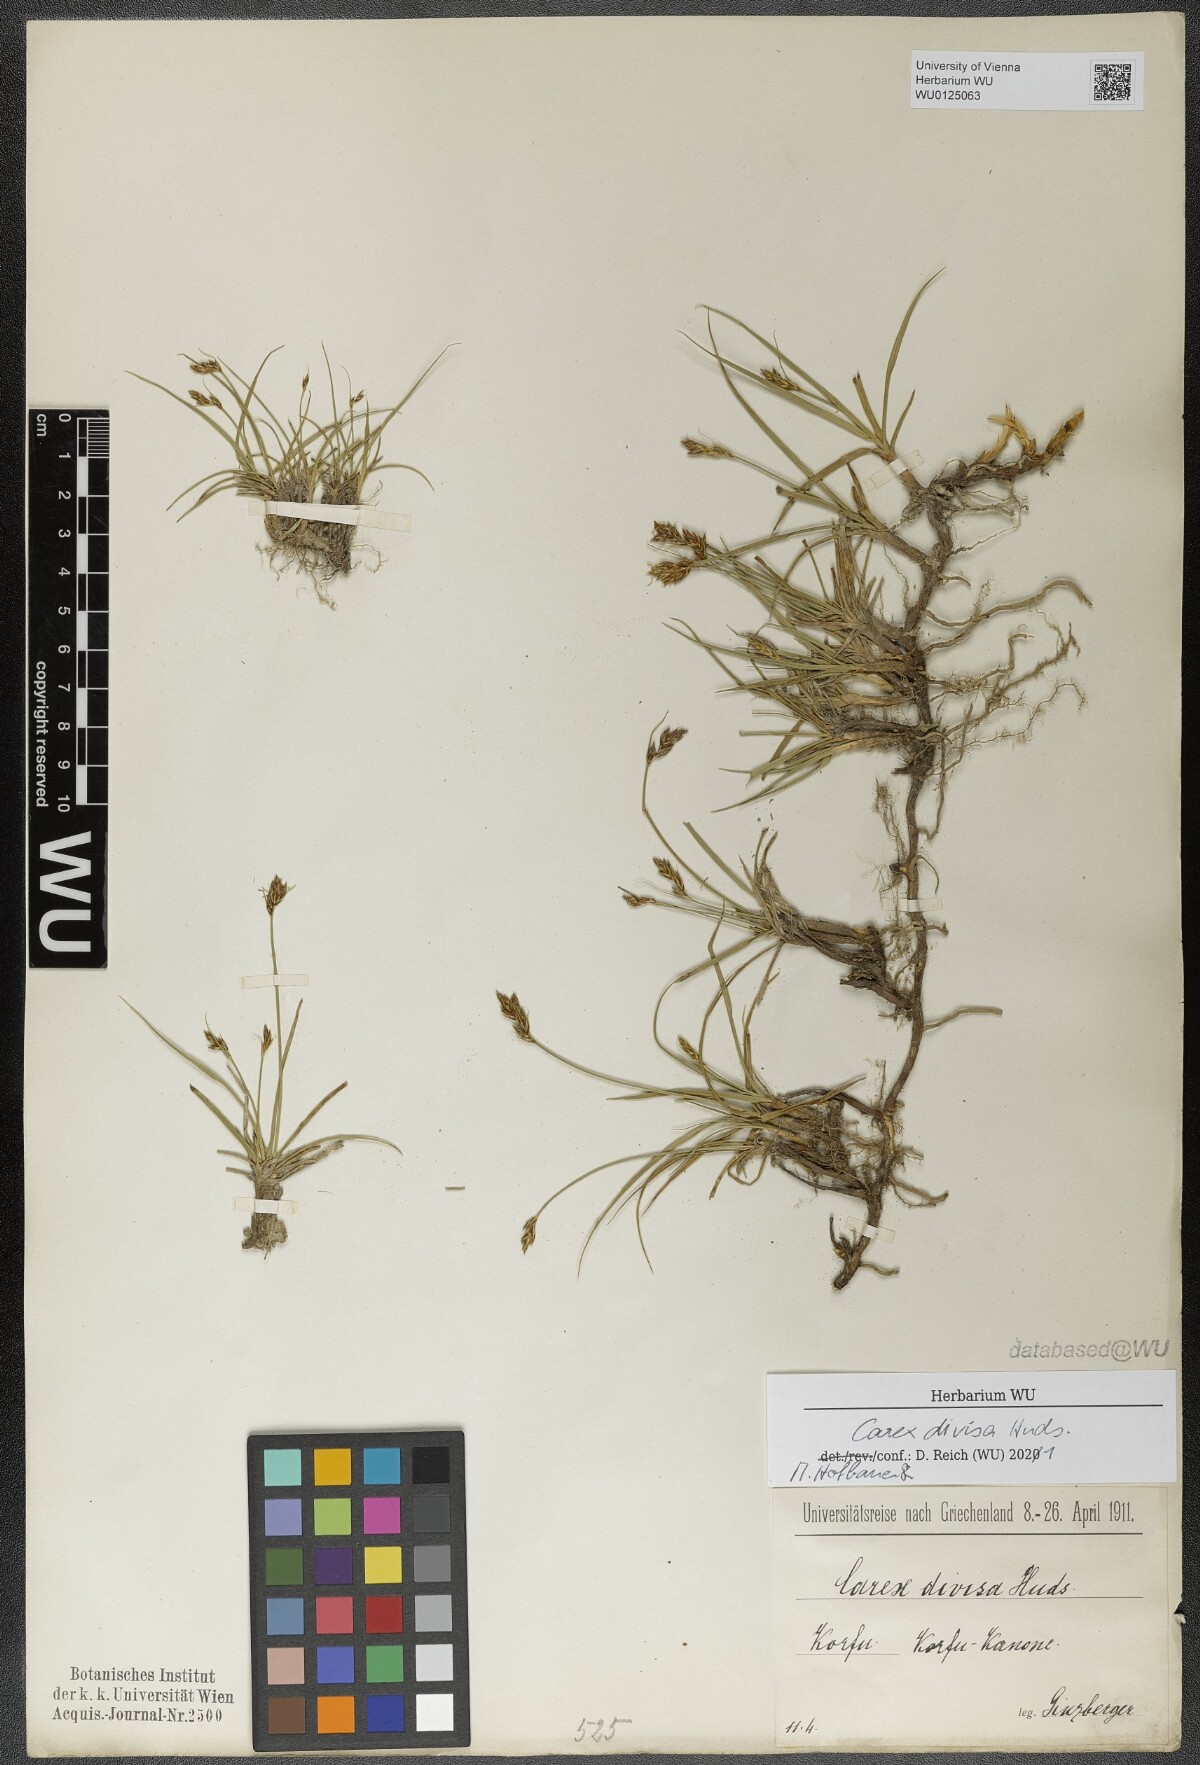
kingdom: Plantae
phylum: Tracheophyta
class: Liliopsida
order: Poales
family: Cyperaceae
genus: Carex
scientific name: Carex divisa
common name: Divided sedge
